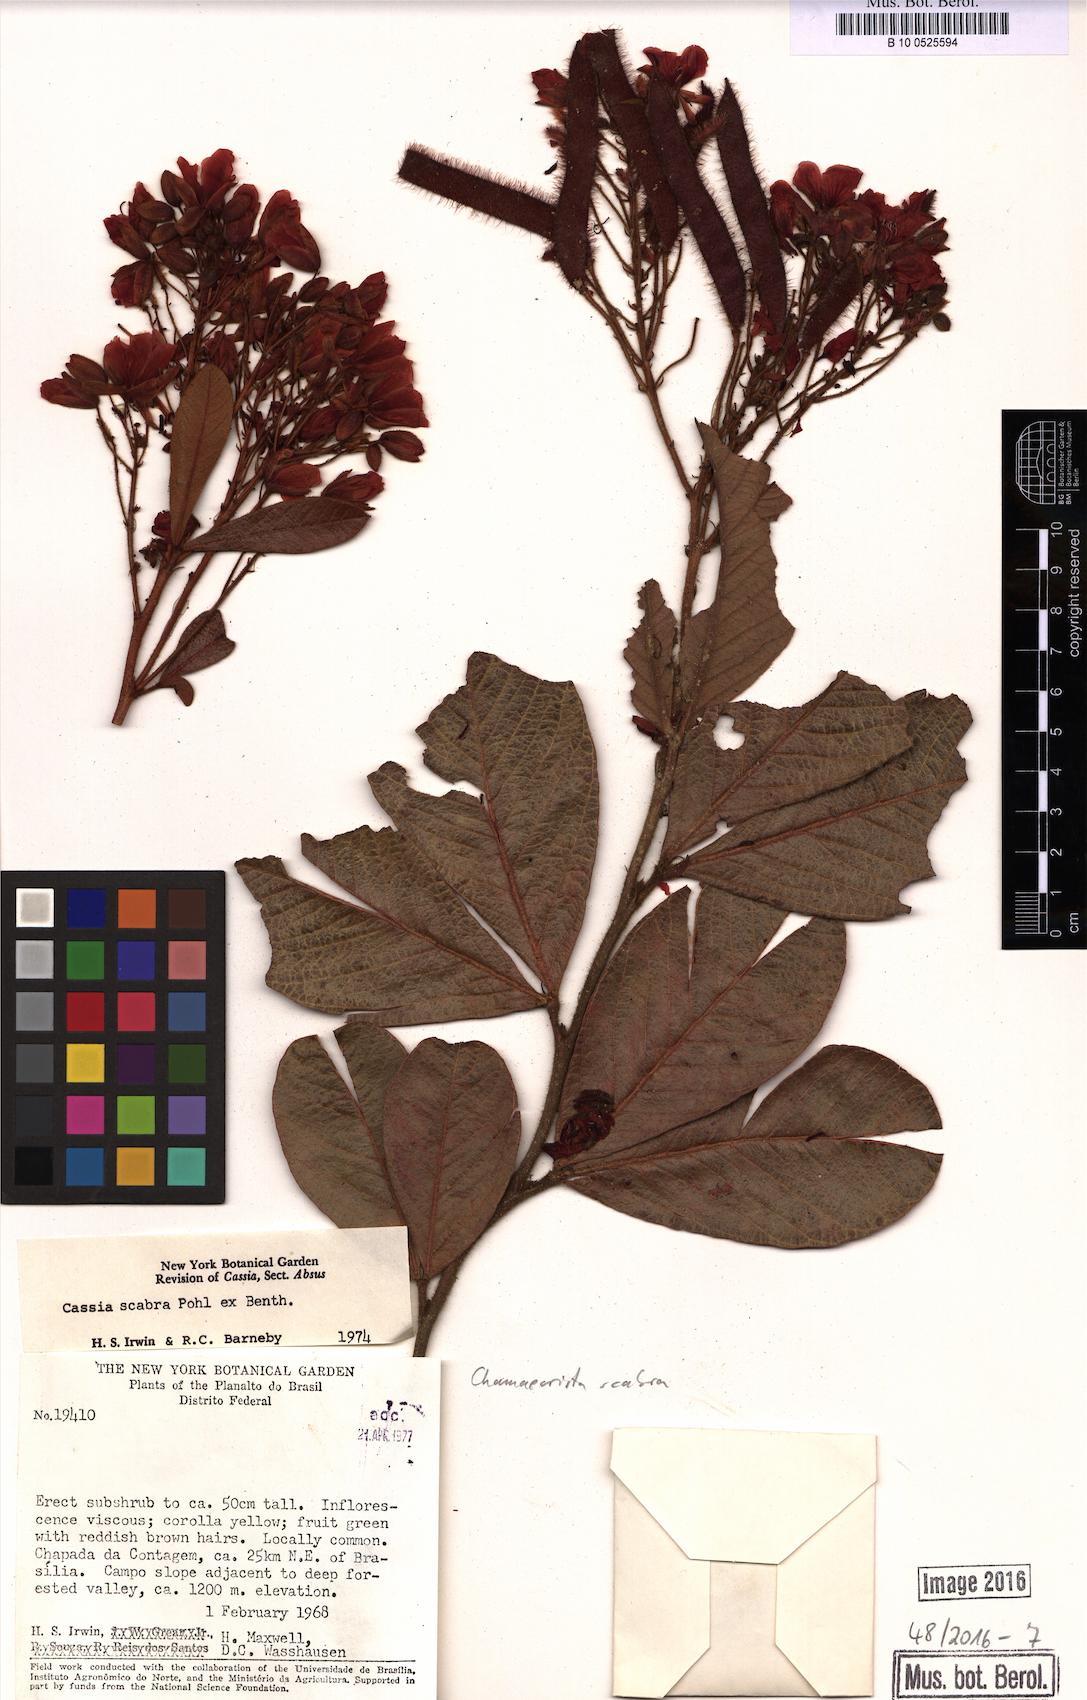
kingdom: Plantae
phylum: Tracheophyta
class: Magnoliopsida
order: Fabales
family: Fabaceae
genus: Chamaecrista
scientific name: Chamaecrista scabra
